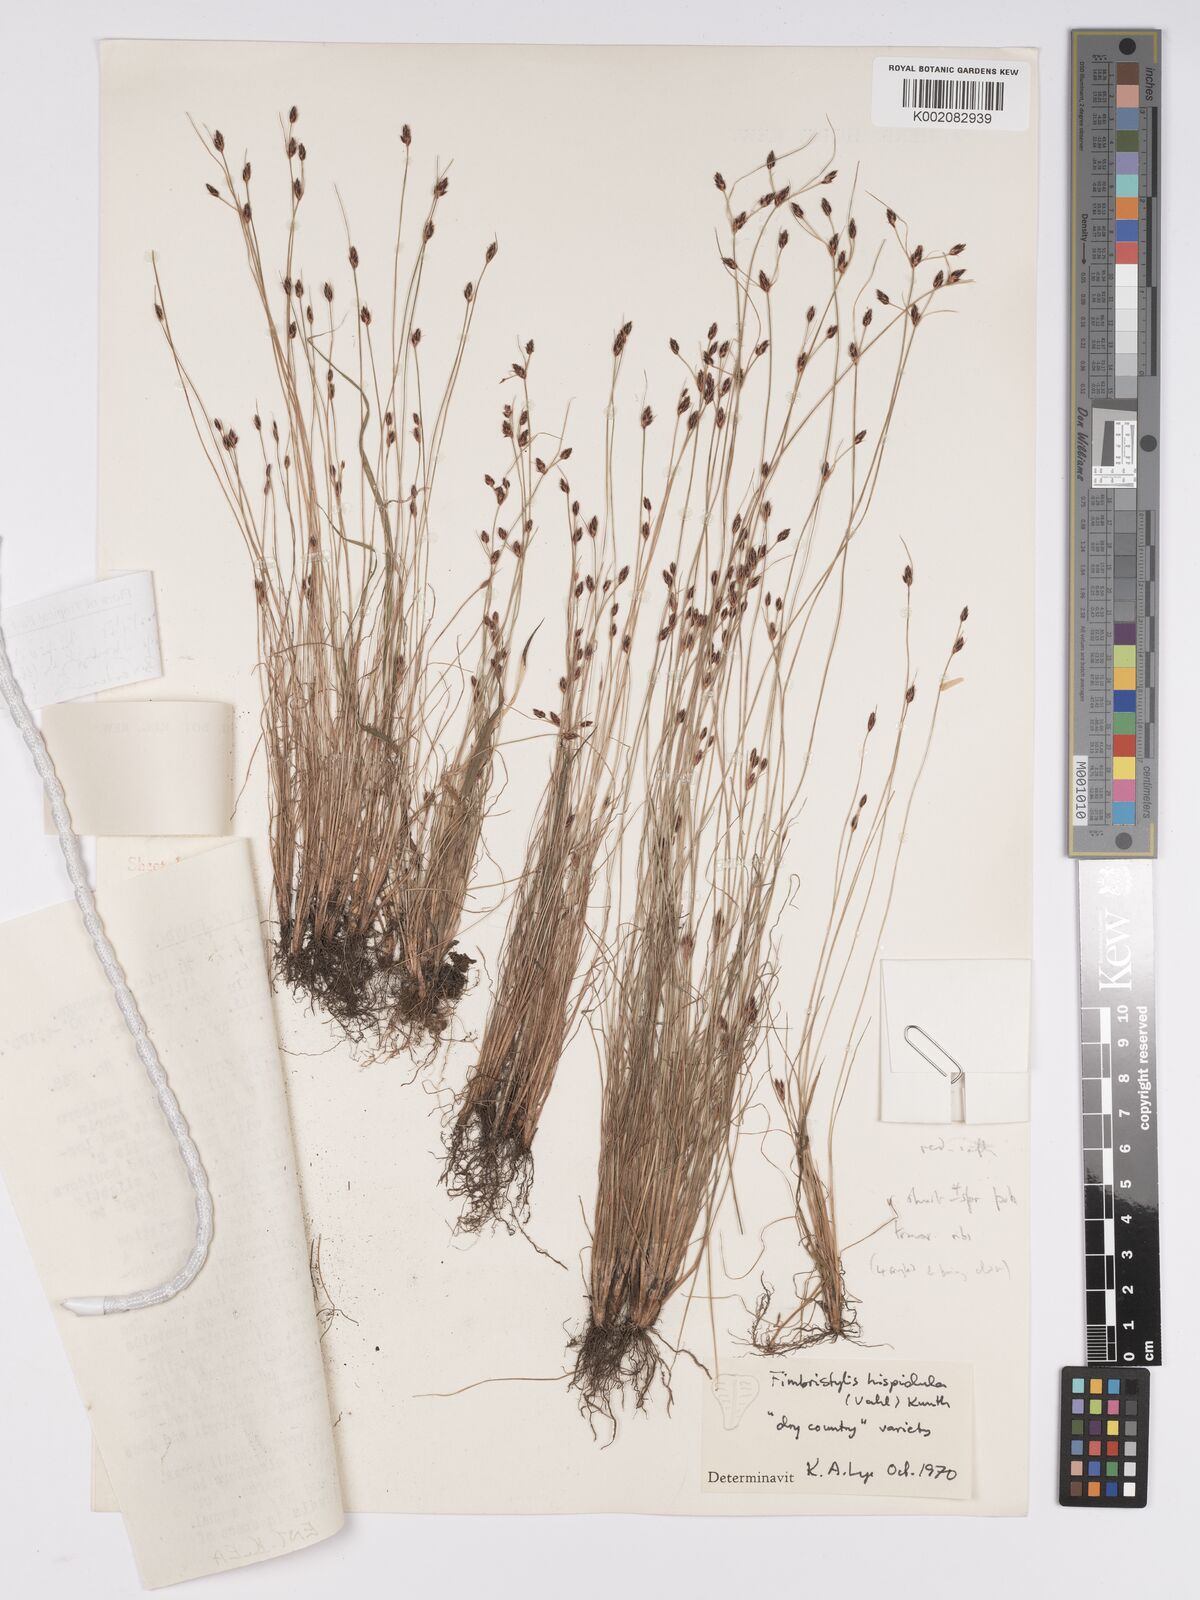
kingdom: Plantae
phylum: Tracheophyta
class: Liliopsida
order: Poales
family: Cyperaceae
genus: Bulbostylis
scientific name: Bulbostylis hispidula
